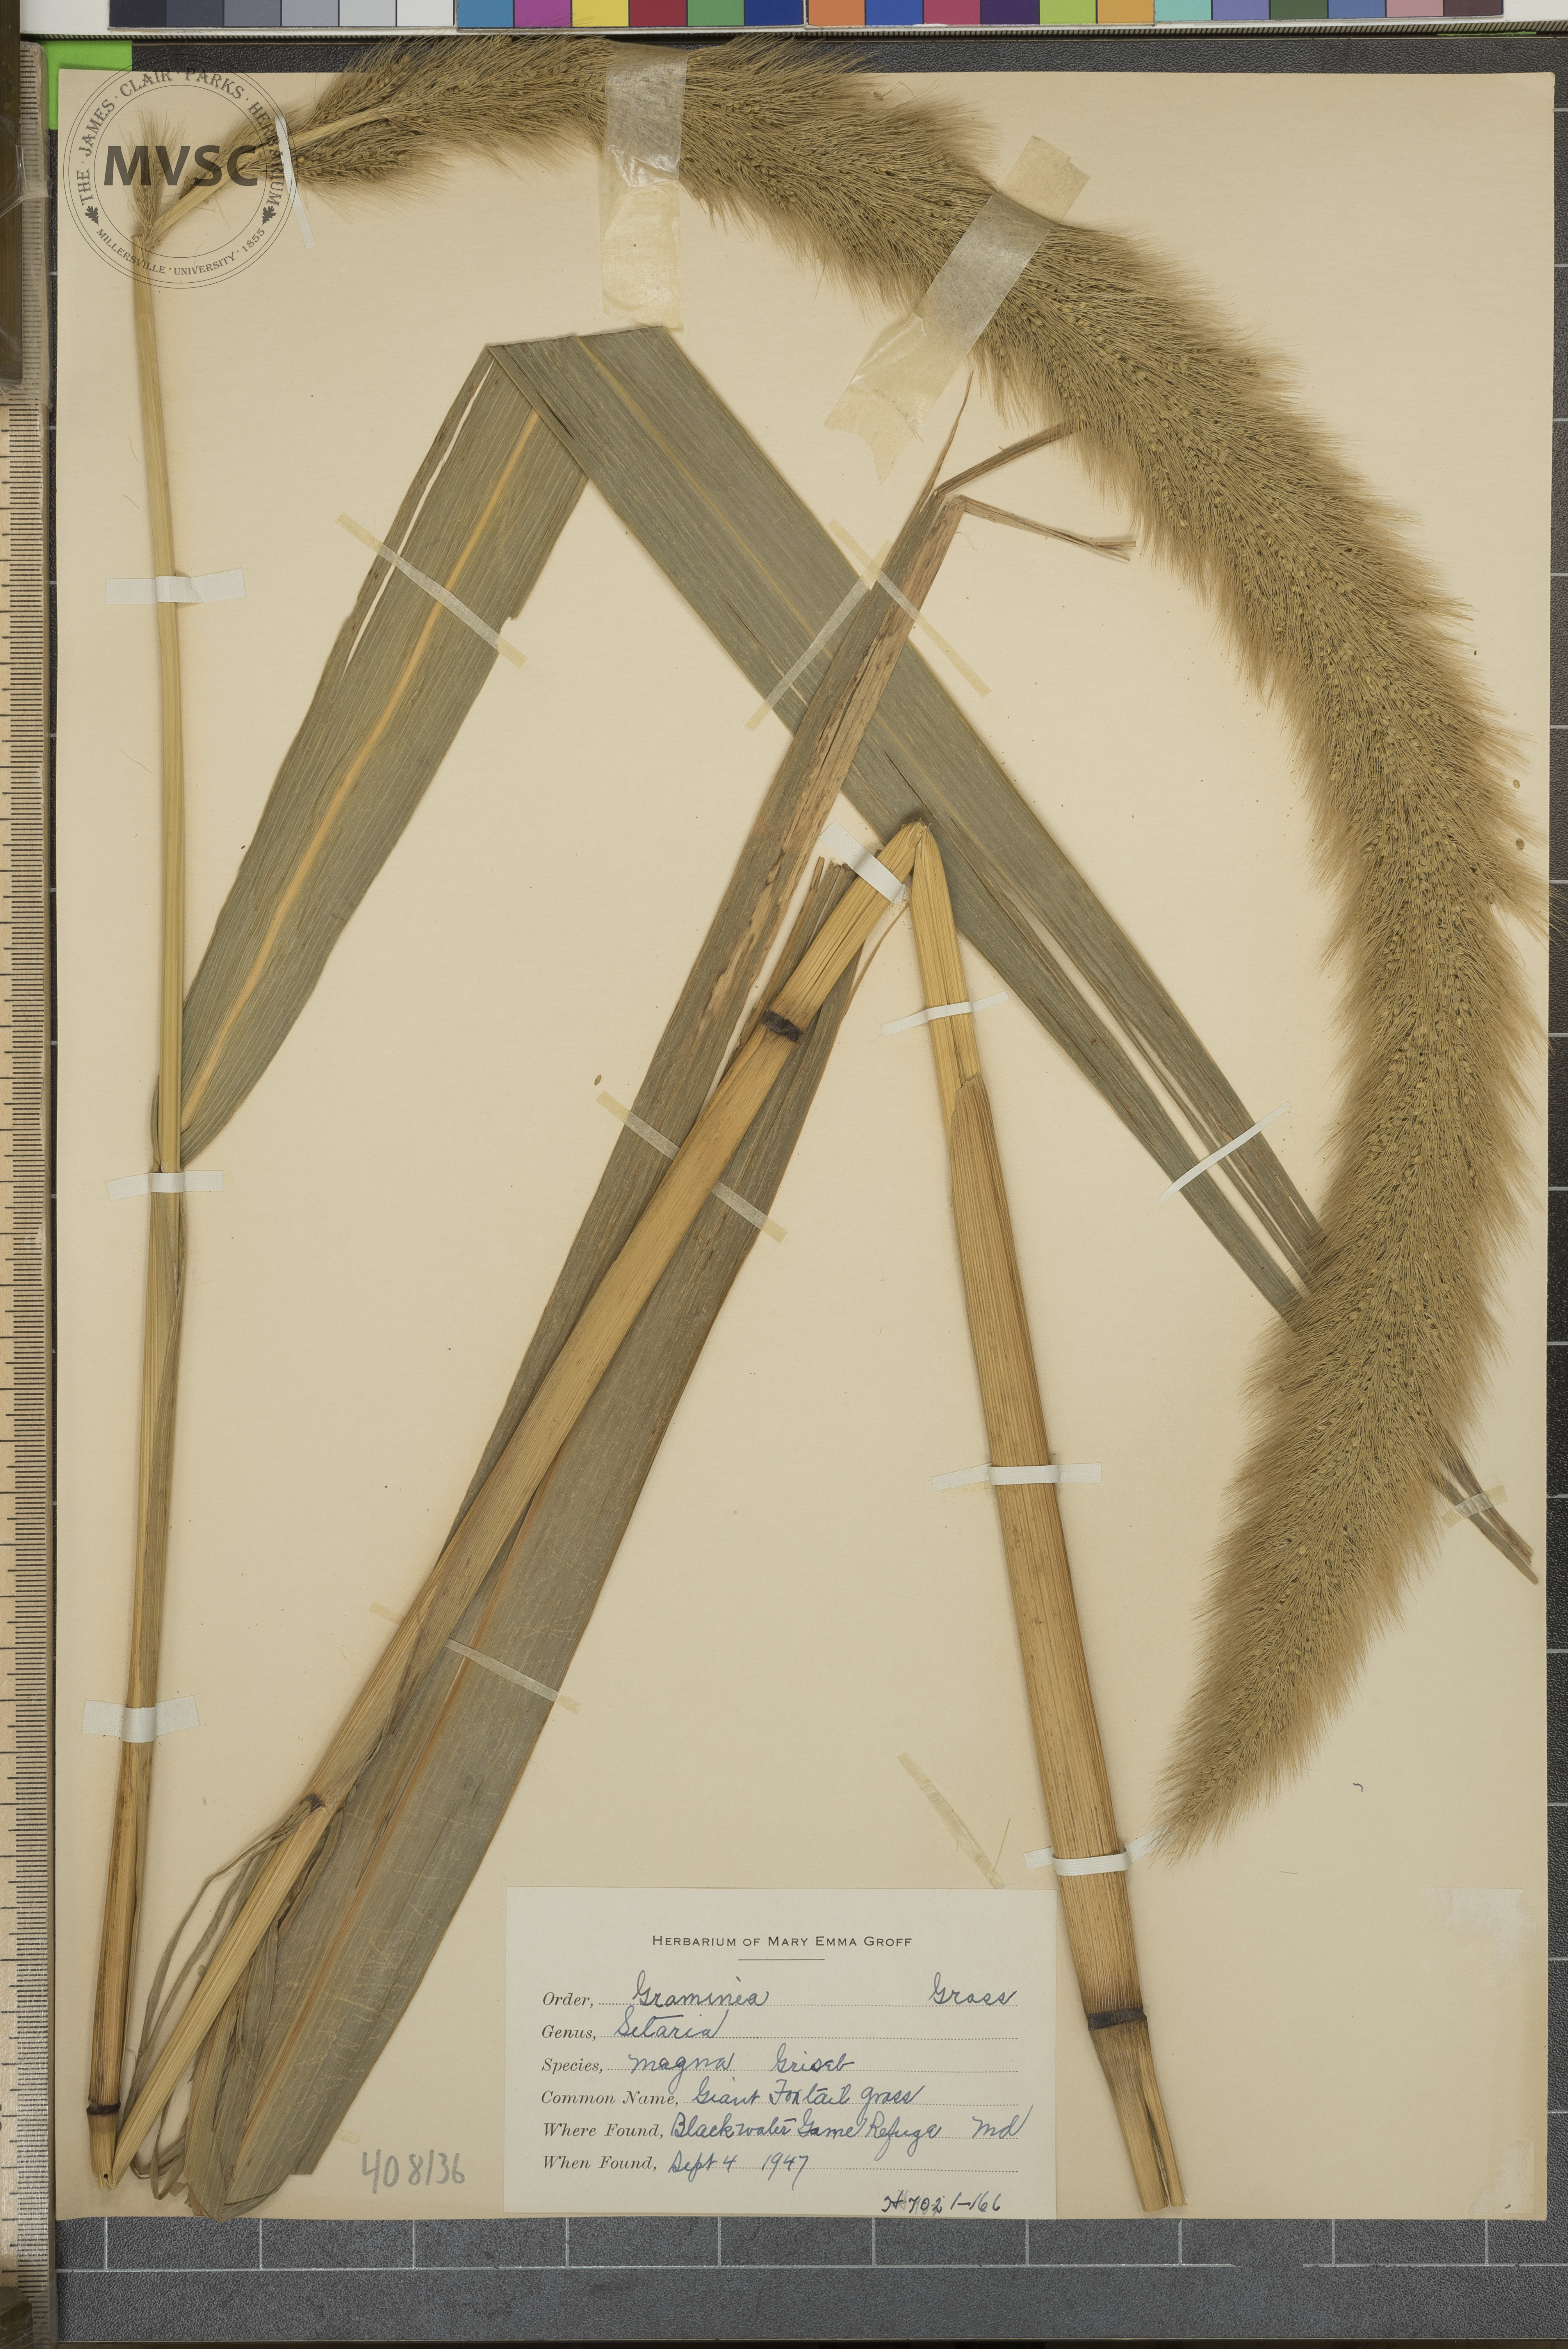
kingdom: Plantae
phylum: Tracheophyta
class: Liliopsida
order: Poales
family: Poaceae
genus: Setaria
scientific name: Setaria magna
